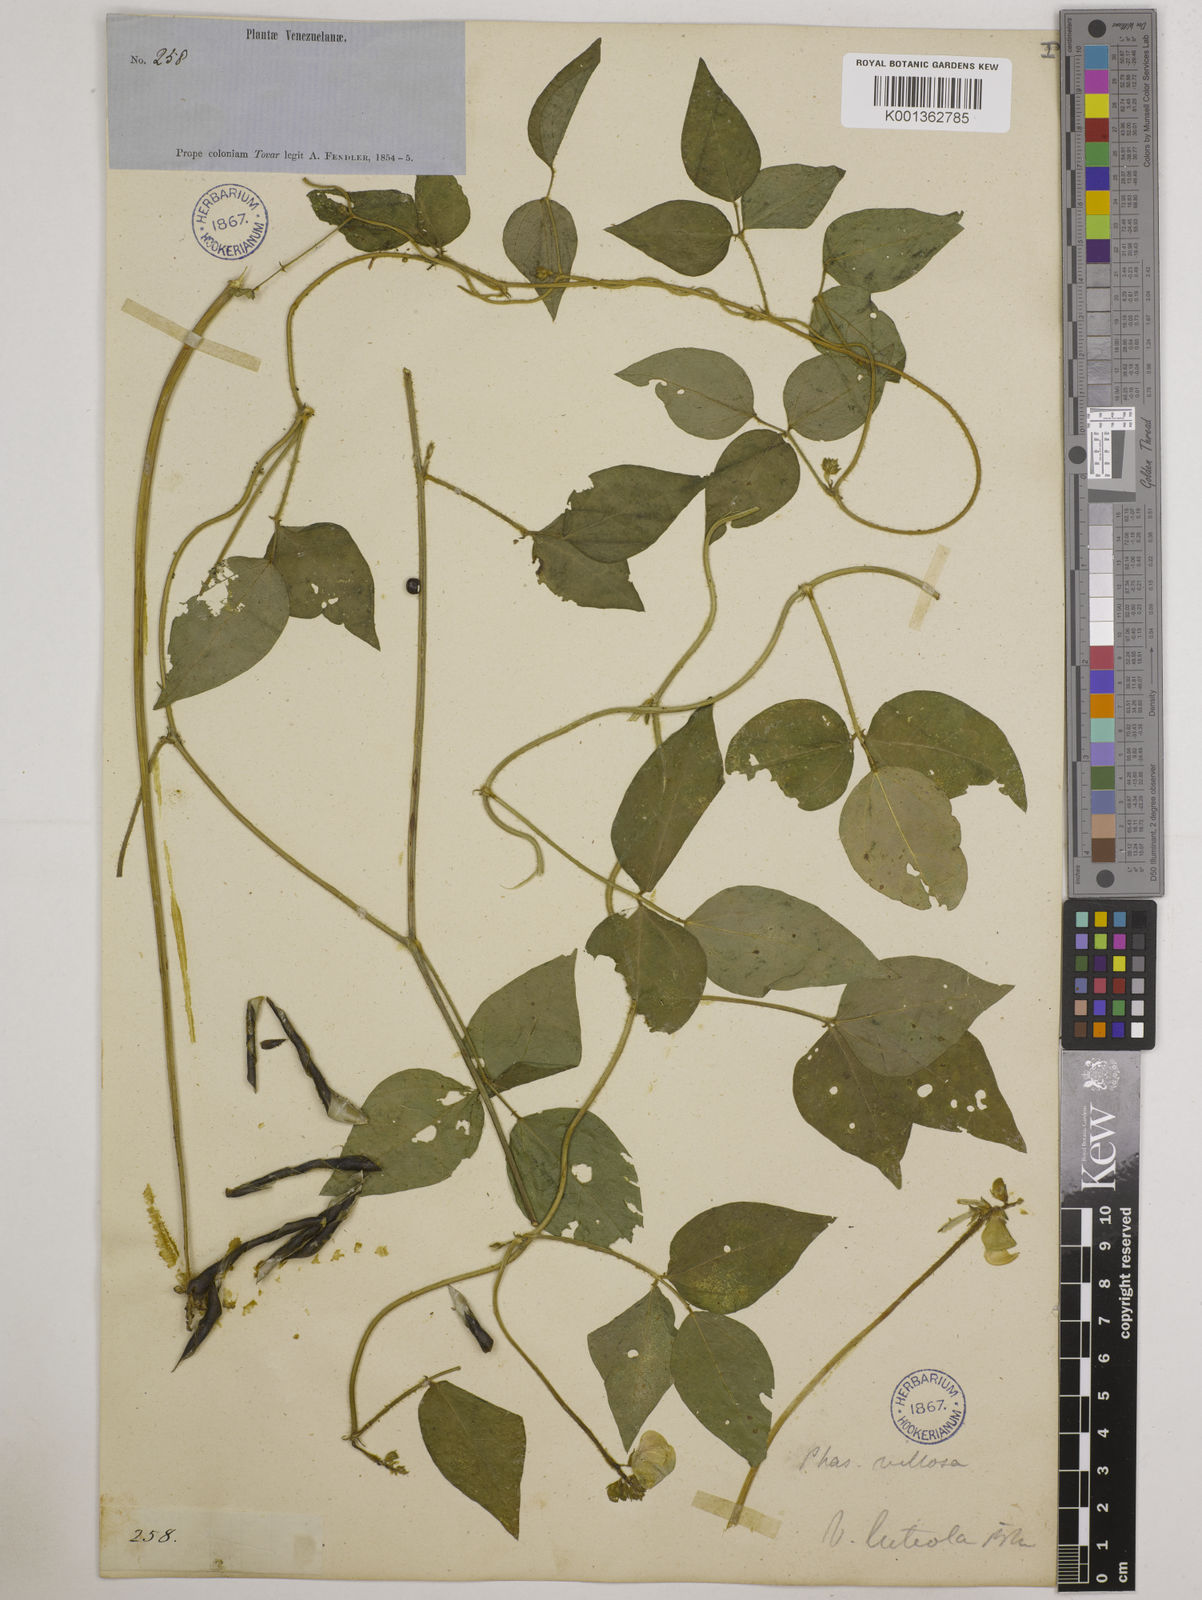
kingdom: Plantae
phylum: Tracheophyta
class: Magnoliopsida
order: Fabales
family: Fabaceae
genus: Vigna
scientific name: Vigna luteola
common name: Hairypod cowpea
